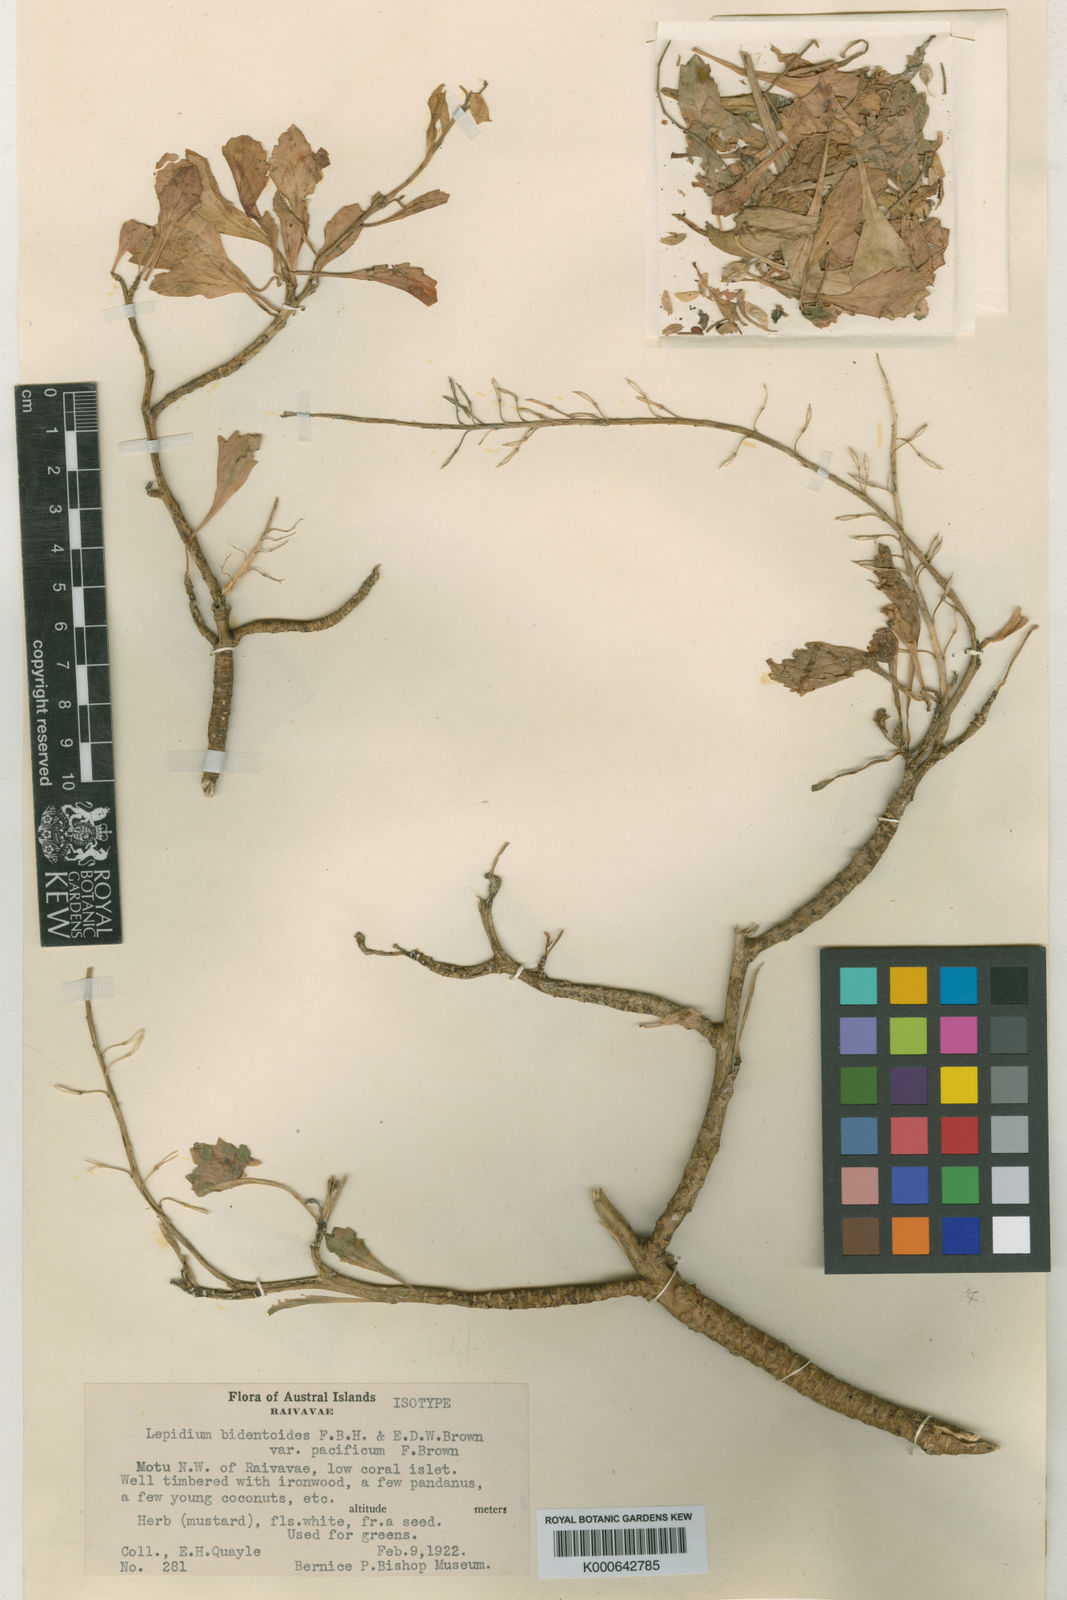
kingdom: Plantae
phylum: Tracheophyta
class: Magnoliopsida
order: Brassicales
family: Brassicaceae
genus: Lepidium
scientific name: Lepidium bidentatum
